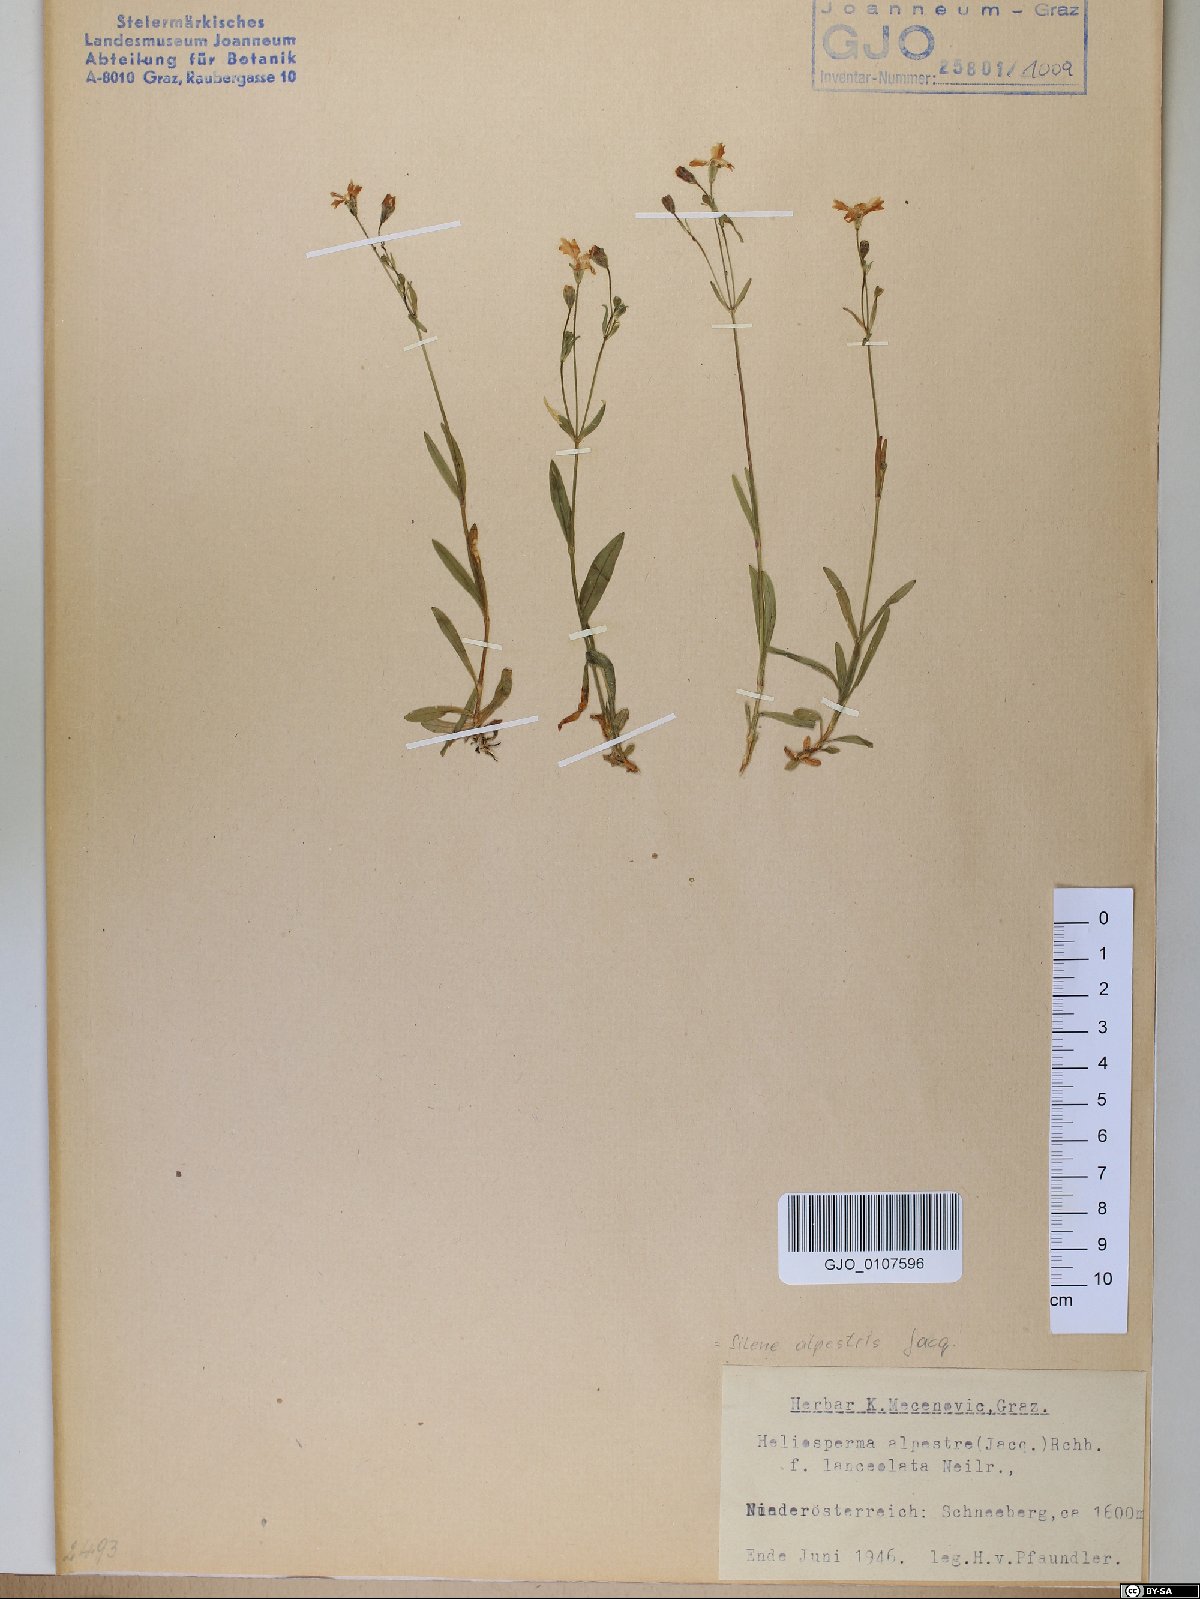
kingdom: Plantae
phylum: Tracheophyta
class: Magnoliopsida
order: Caryophyllales
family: Caryophyllaceae
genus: Heliosperma
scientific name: Heliosperma alpestre
